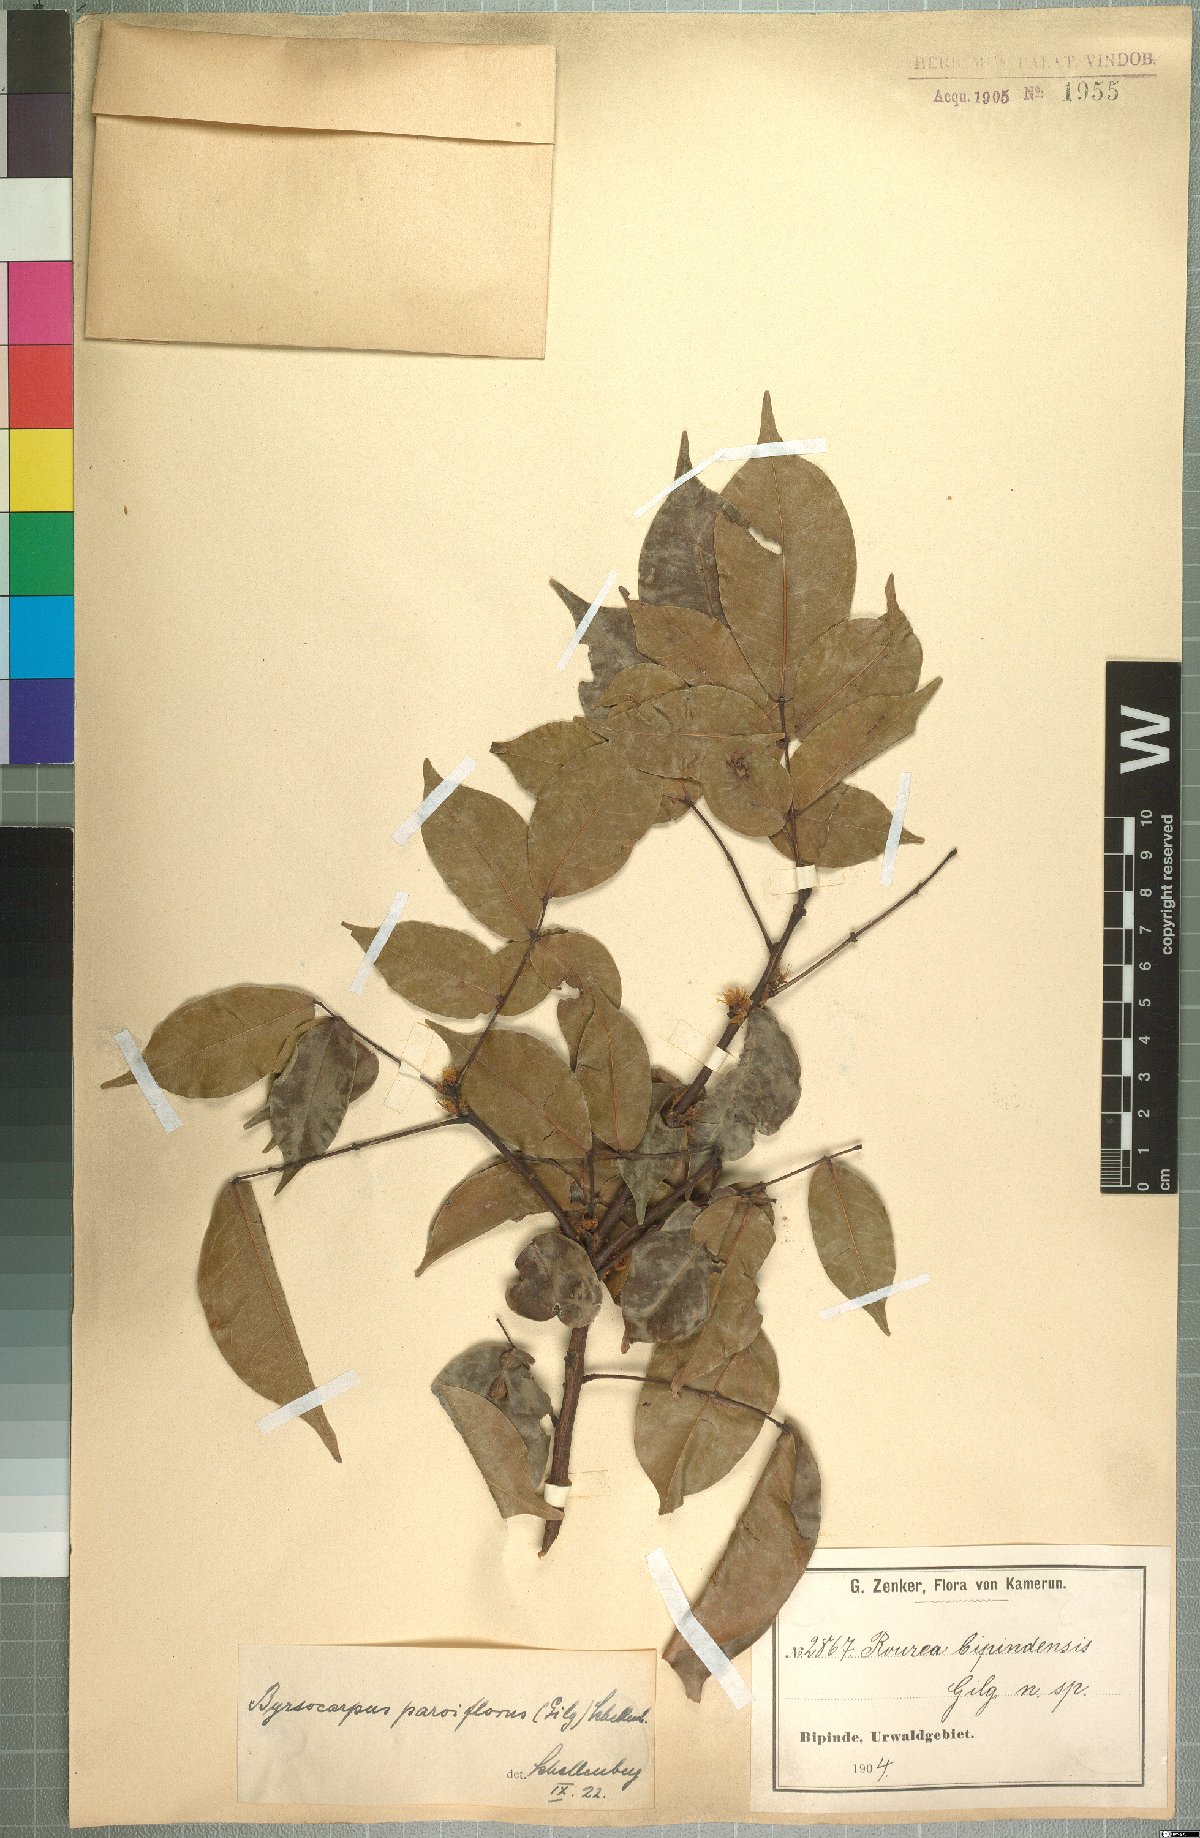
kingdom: Plantae
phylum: Tracheophyta
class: Magnoliopsida
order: Oxalidales
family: Connaraceae
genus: Rourea
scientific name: Rourea minor
